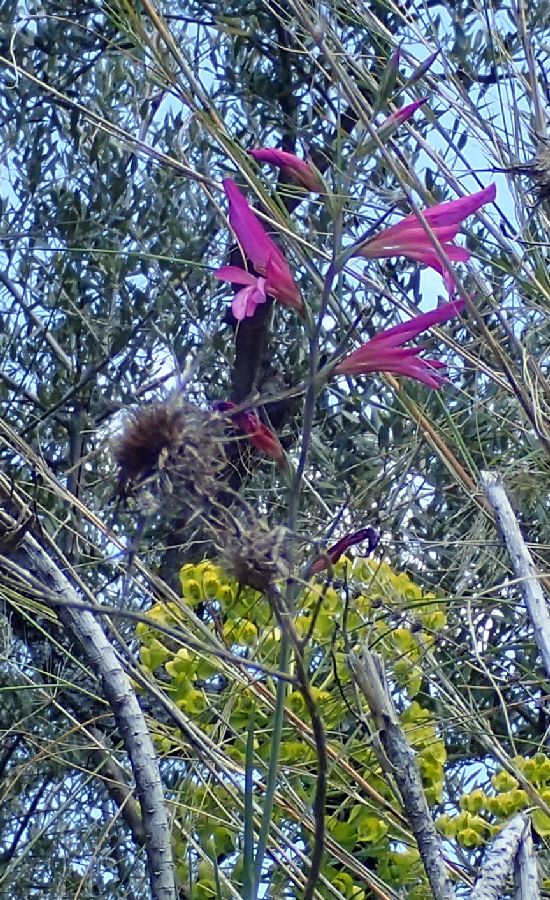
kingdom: Plantae
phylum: Tracheophyta
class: Liliopsida
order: Asparagales
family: Iridaceae
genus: Gladiolus
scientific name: Gladiolus italicus
